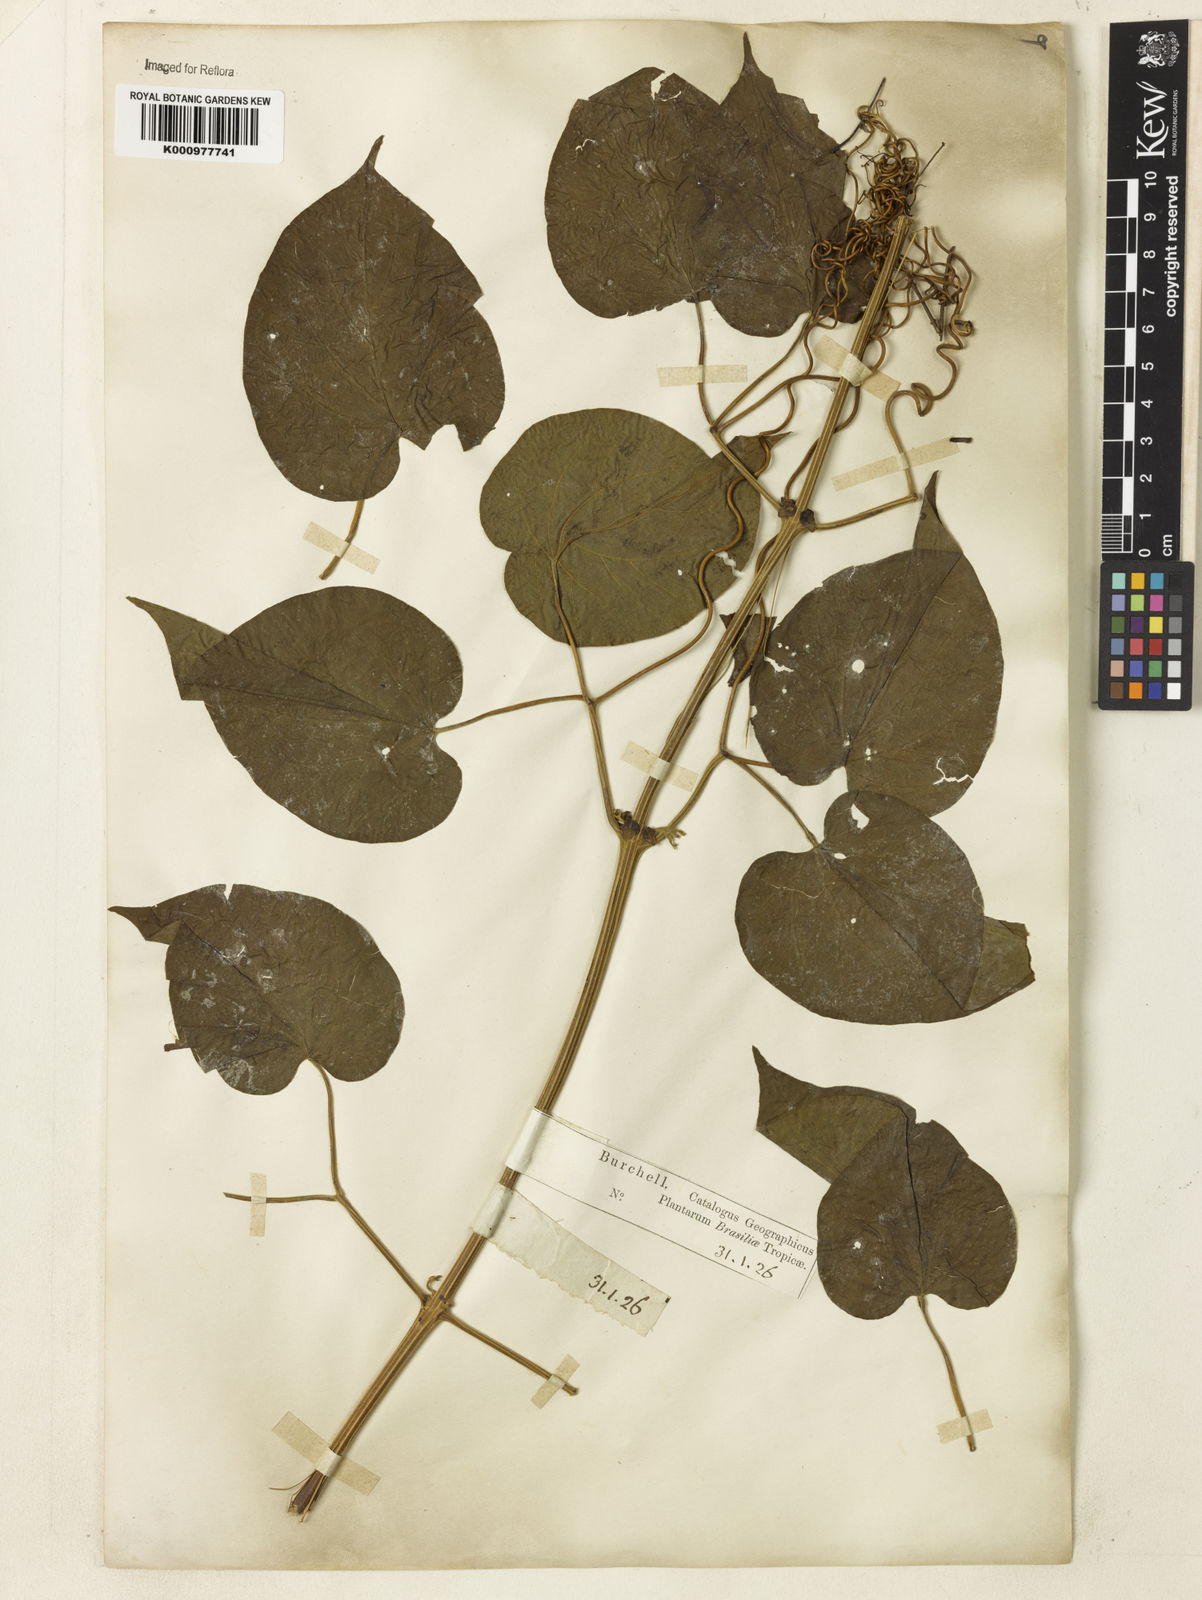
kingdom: Plantae
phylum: Tracheophyta
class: Magnoliopsida
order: Lamiales
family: Bignoniaceae
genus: Amphilophium
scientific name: Amphilophium crucigerum
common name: Monkey comb
